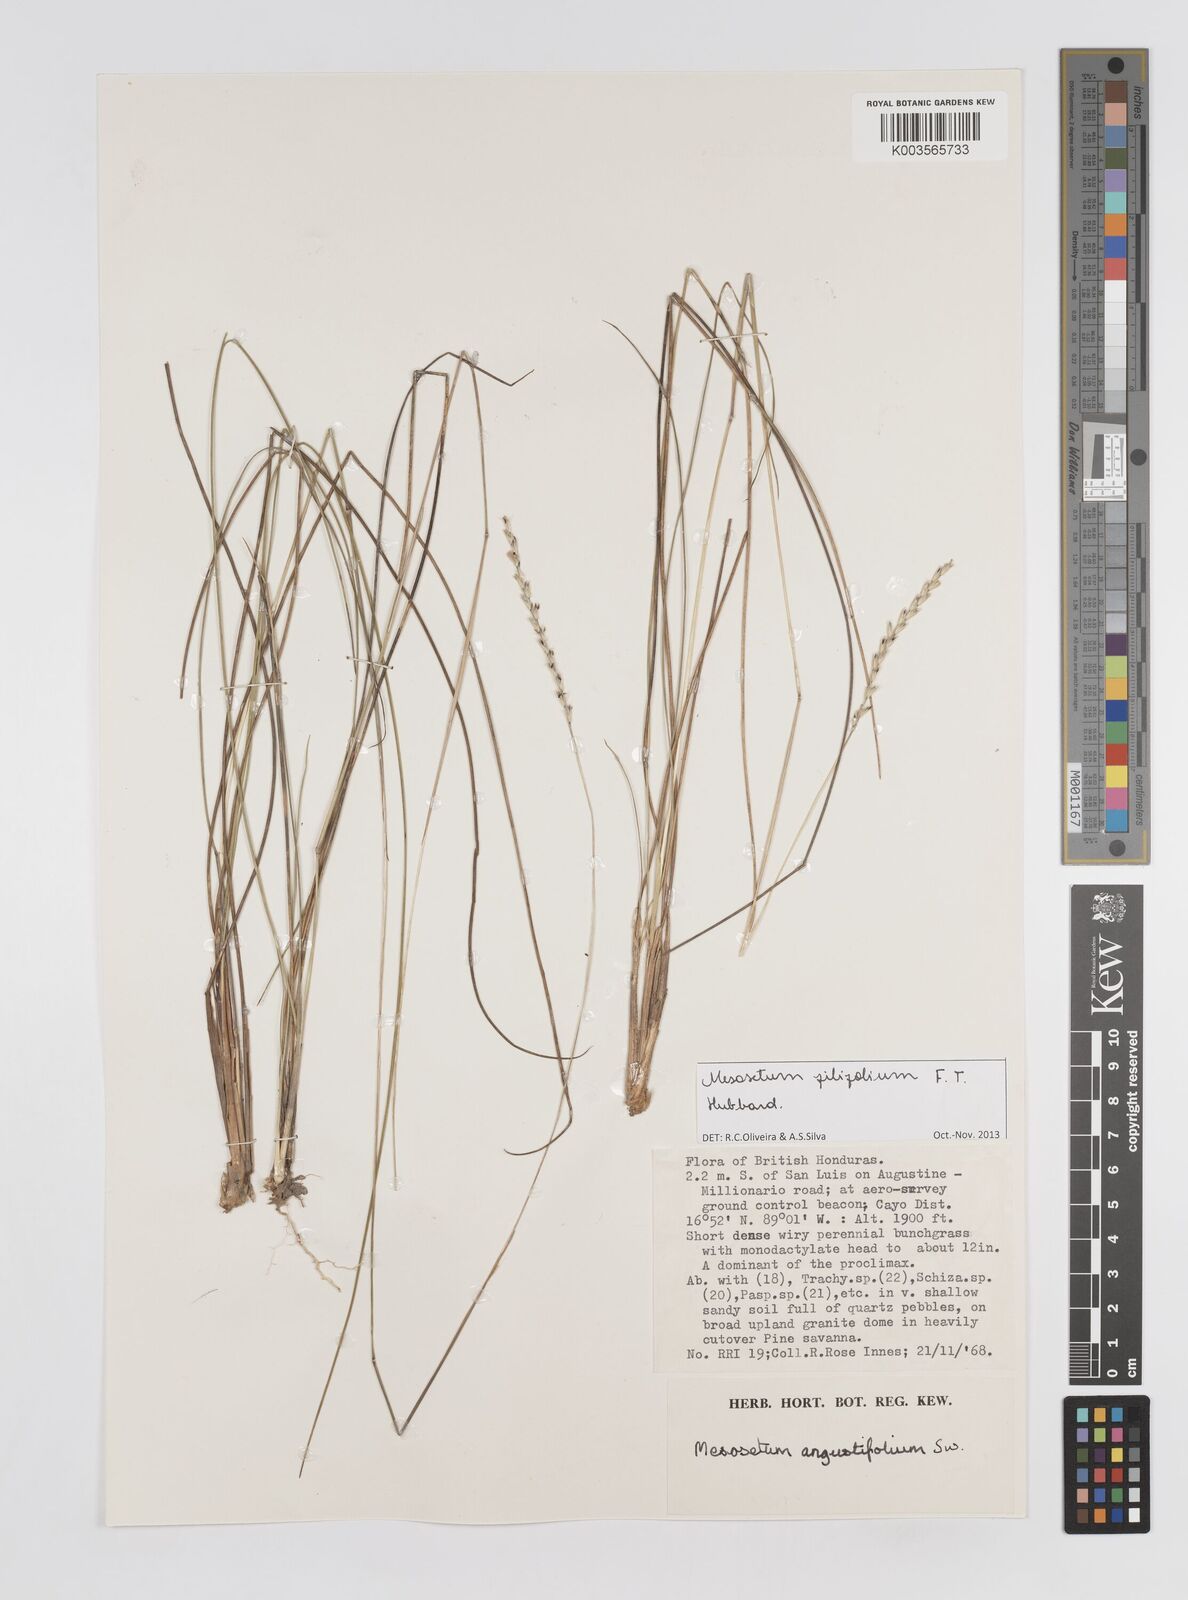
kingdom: Plantae
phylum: Tracheophyta
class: Liliopsida
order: Poales
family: Poaceae
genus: Mesosetum
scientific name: Mesosetum filifolium
